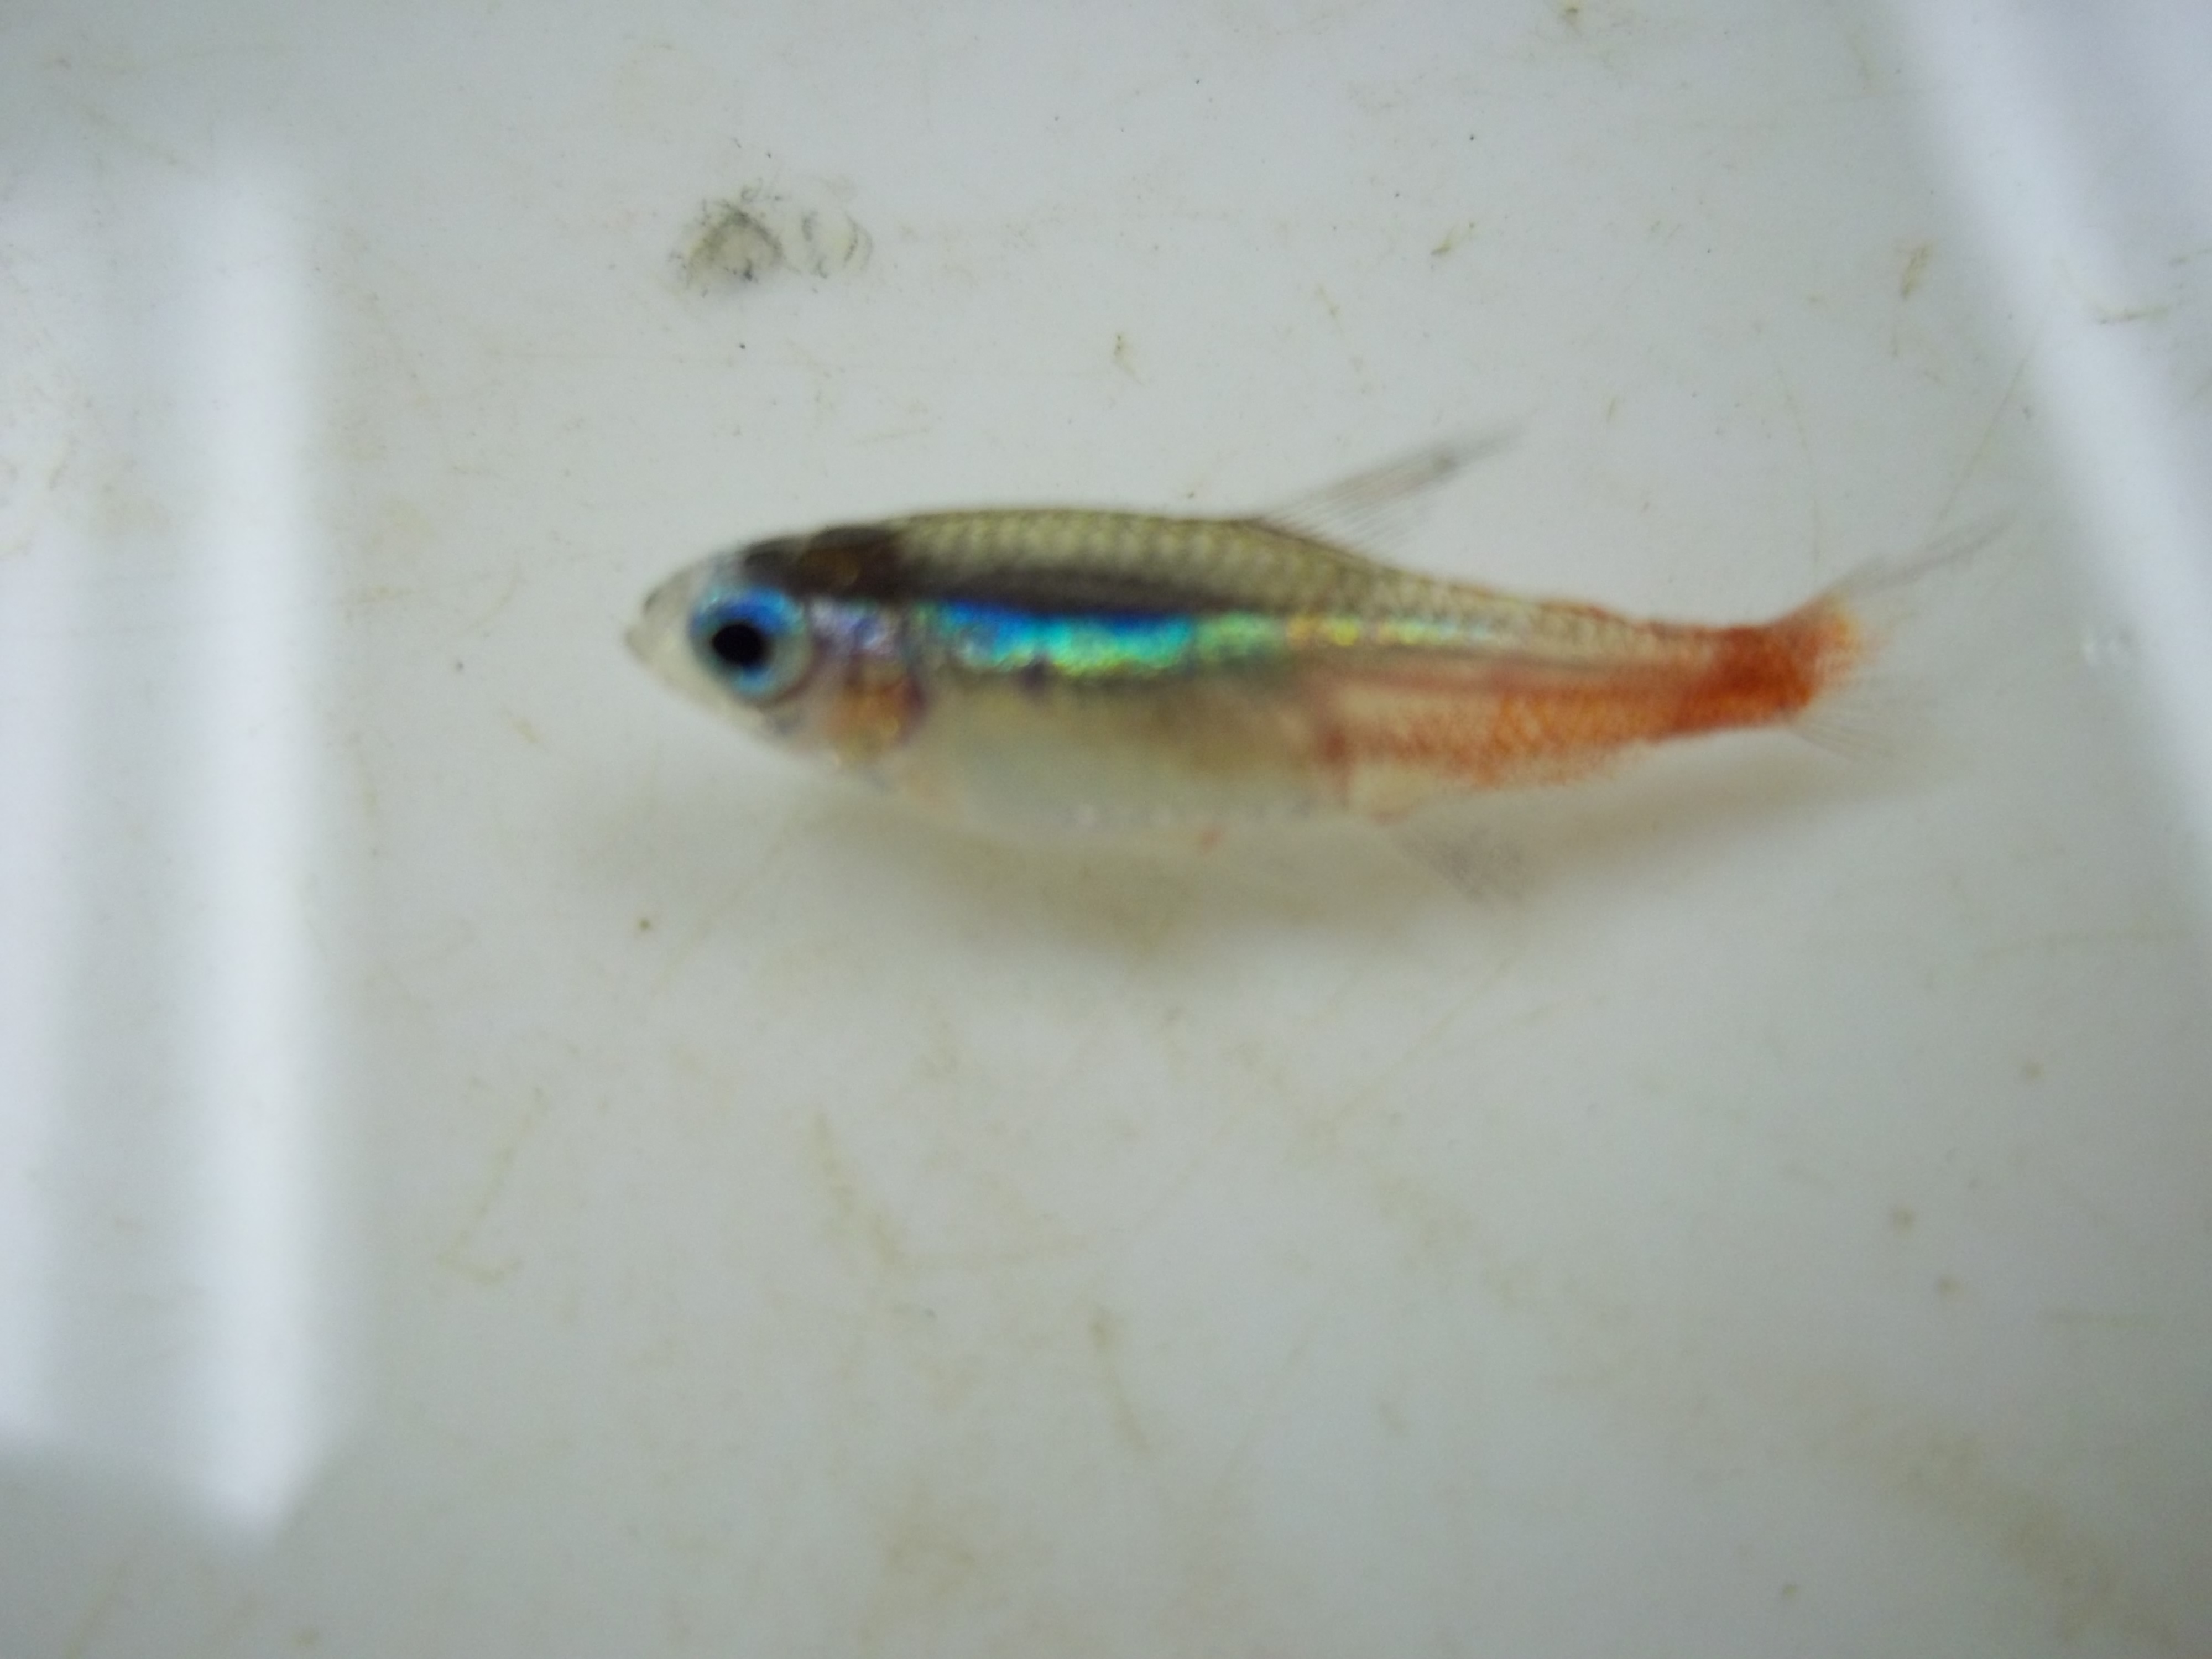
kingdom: Animalia
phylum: Chordata
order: Characiformes
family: Characidae
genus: Paracheirodon
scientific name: Paracheirodon innesi
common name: Neon tetra
